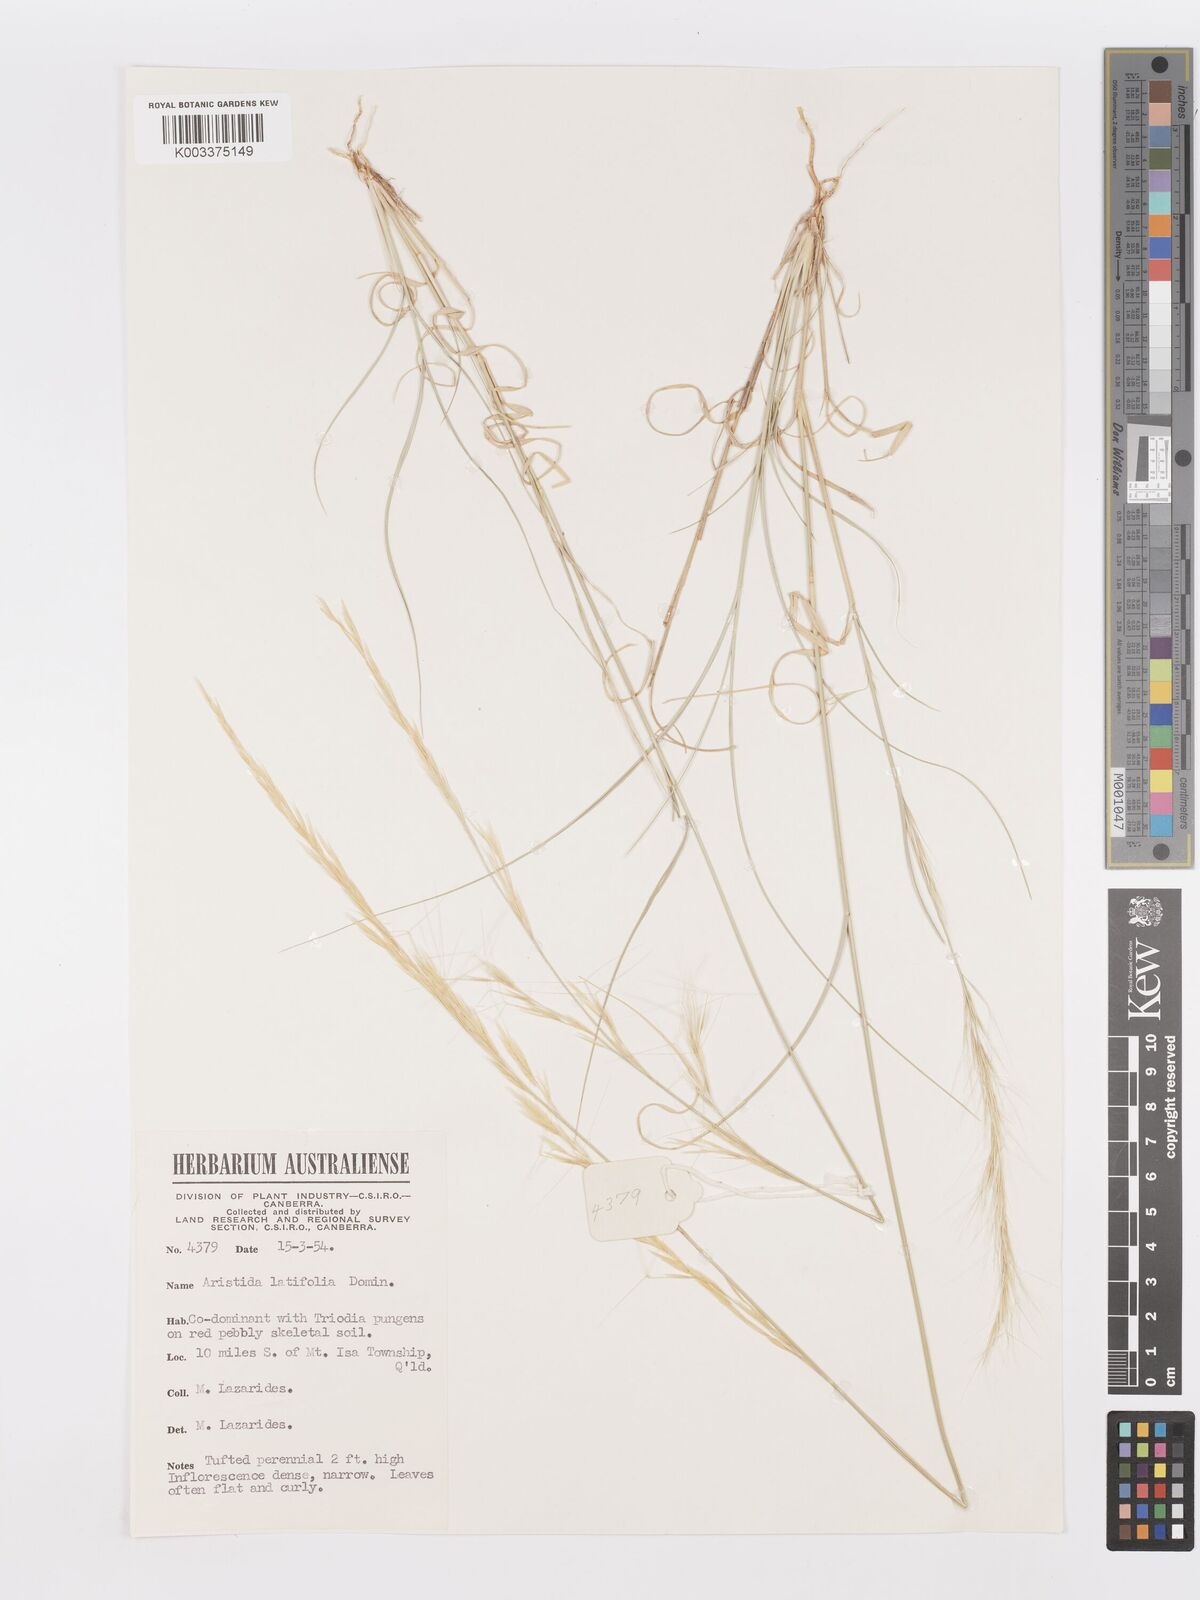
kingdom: Plantae
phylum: Tracheophyta
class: Liliopsida
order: Poales
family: Poaceae
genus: Aristida
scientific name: Aristida latifolia
